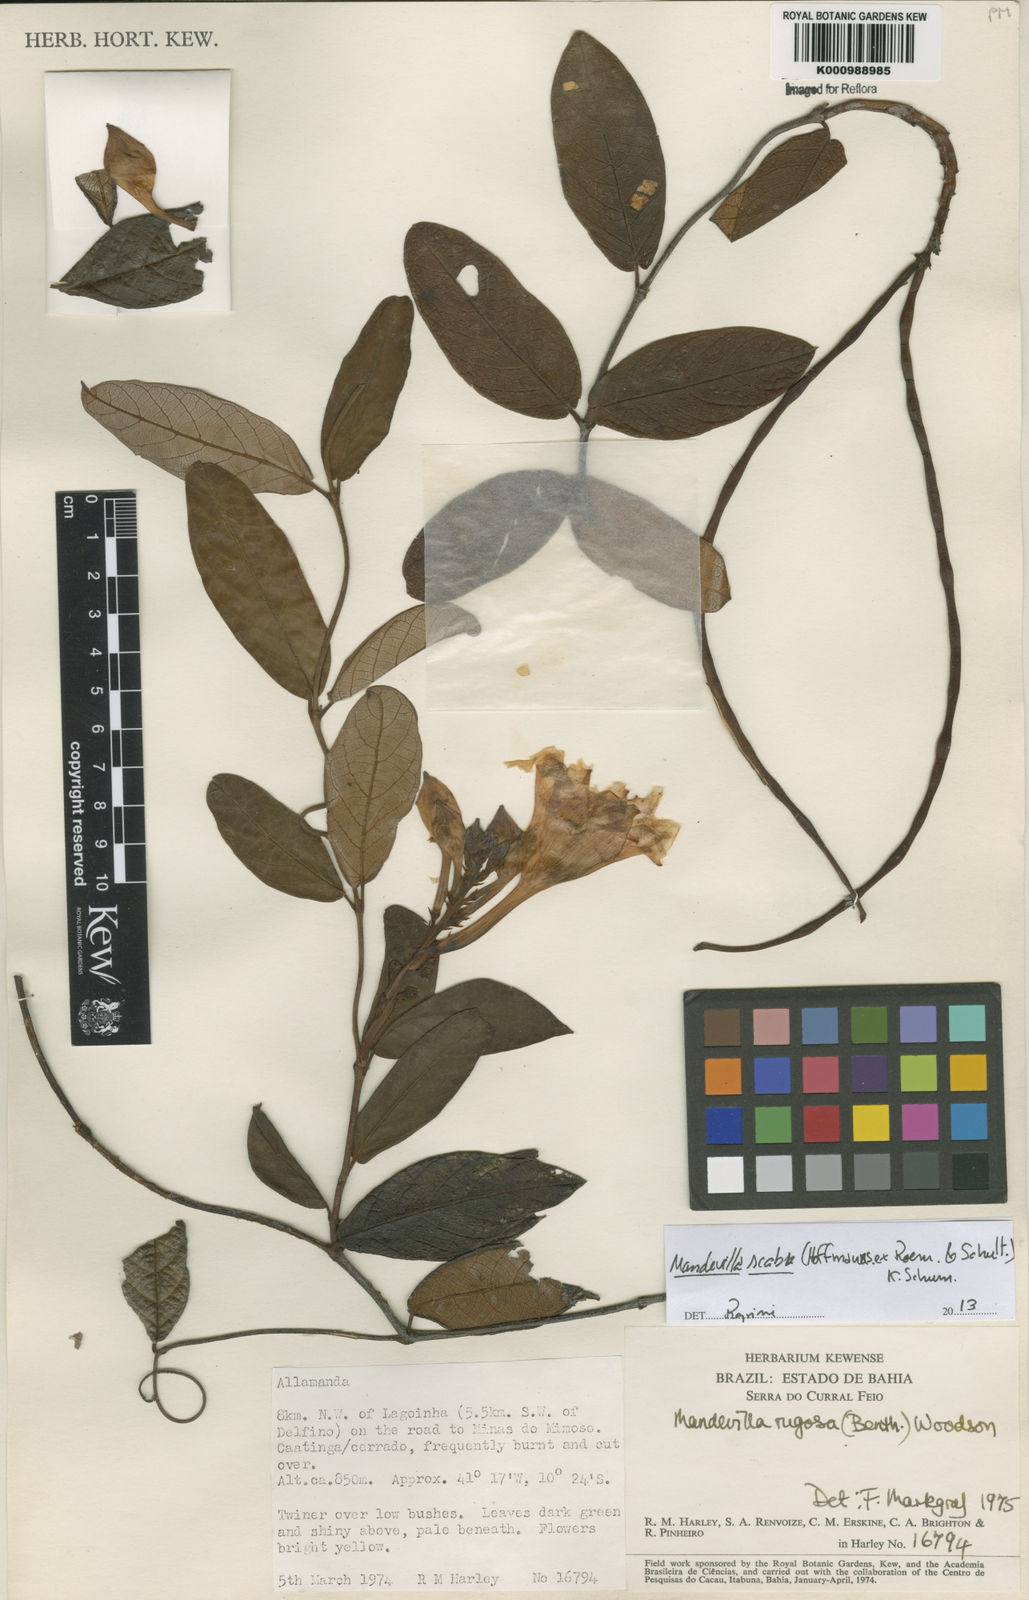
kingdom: Plantae
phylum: Tracheophyta
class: Magnoliopsida
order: Gentianales
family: Apocynaceae
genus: Mandevilla
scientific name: Mandevilla rugosa
